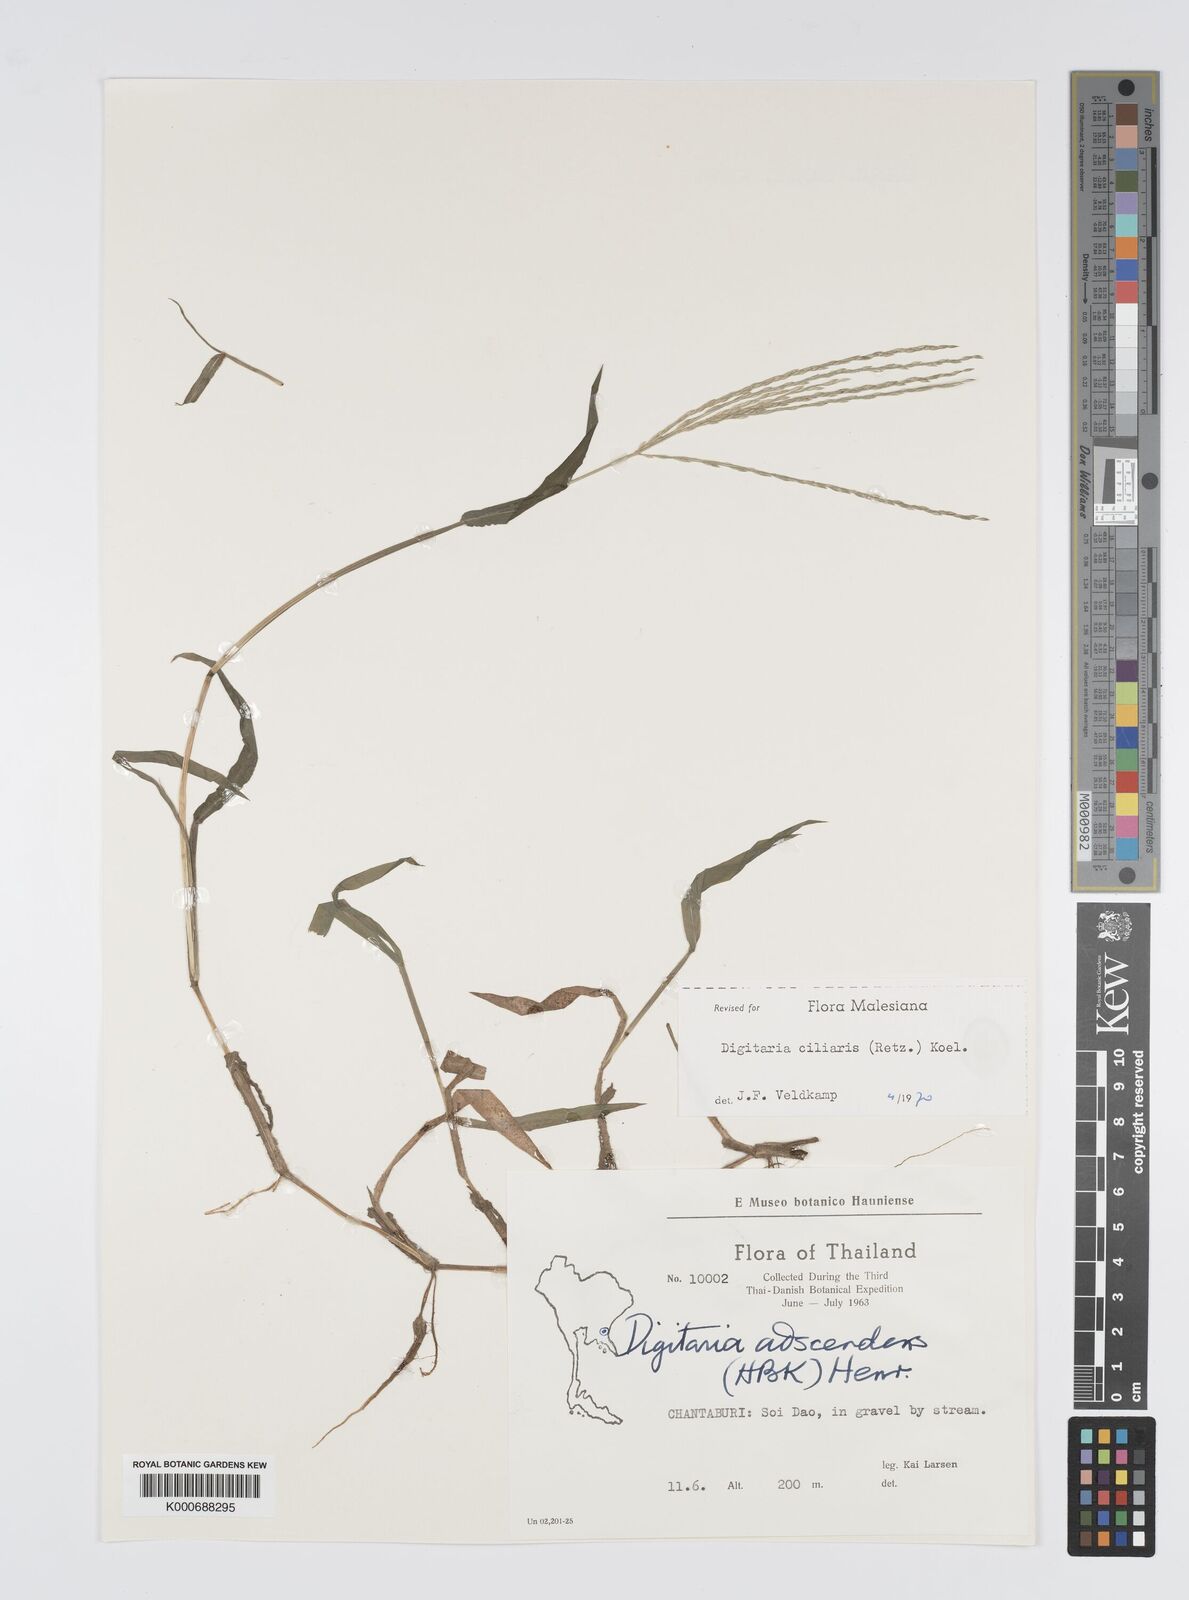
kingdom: Plantae
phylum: Tracheophyta
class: Liliopsida
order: Poales
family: Poaceae
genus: Digitaria
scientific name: Digitaria ciliaris
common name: Tropical finger-grass
